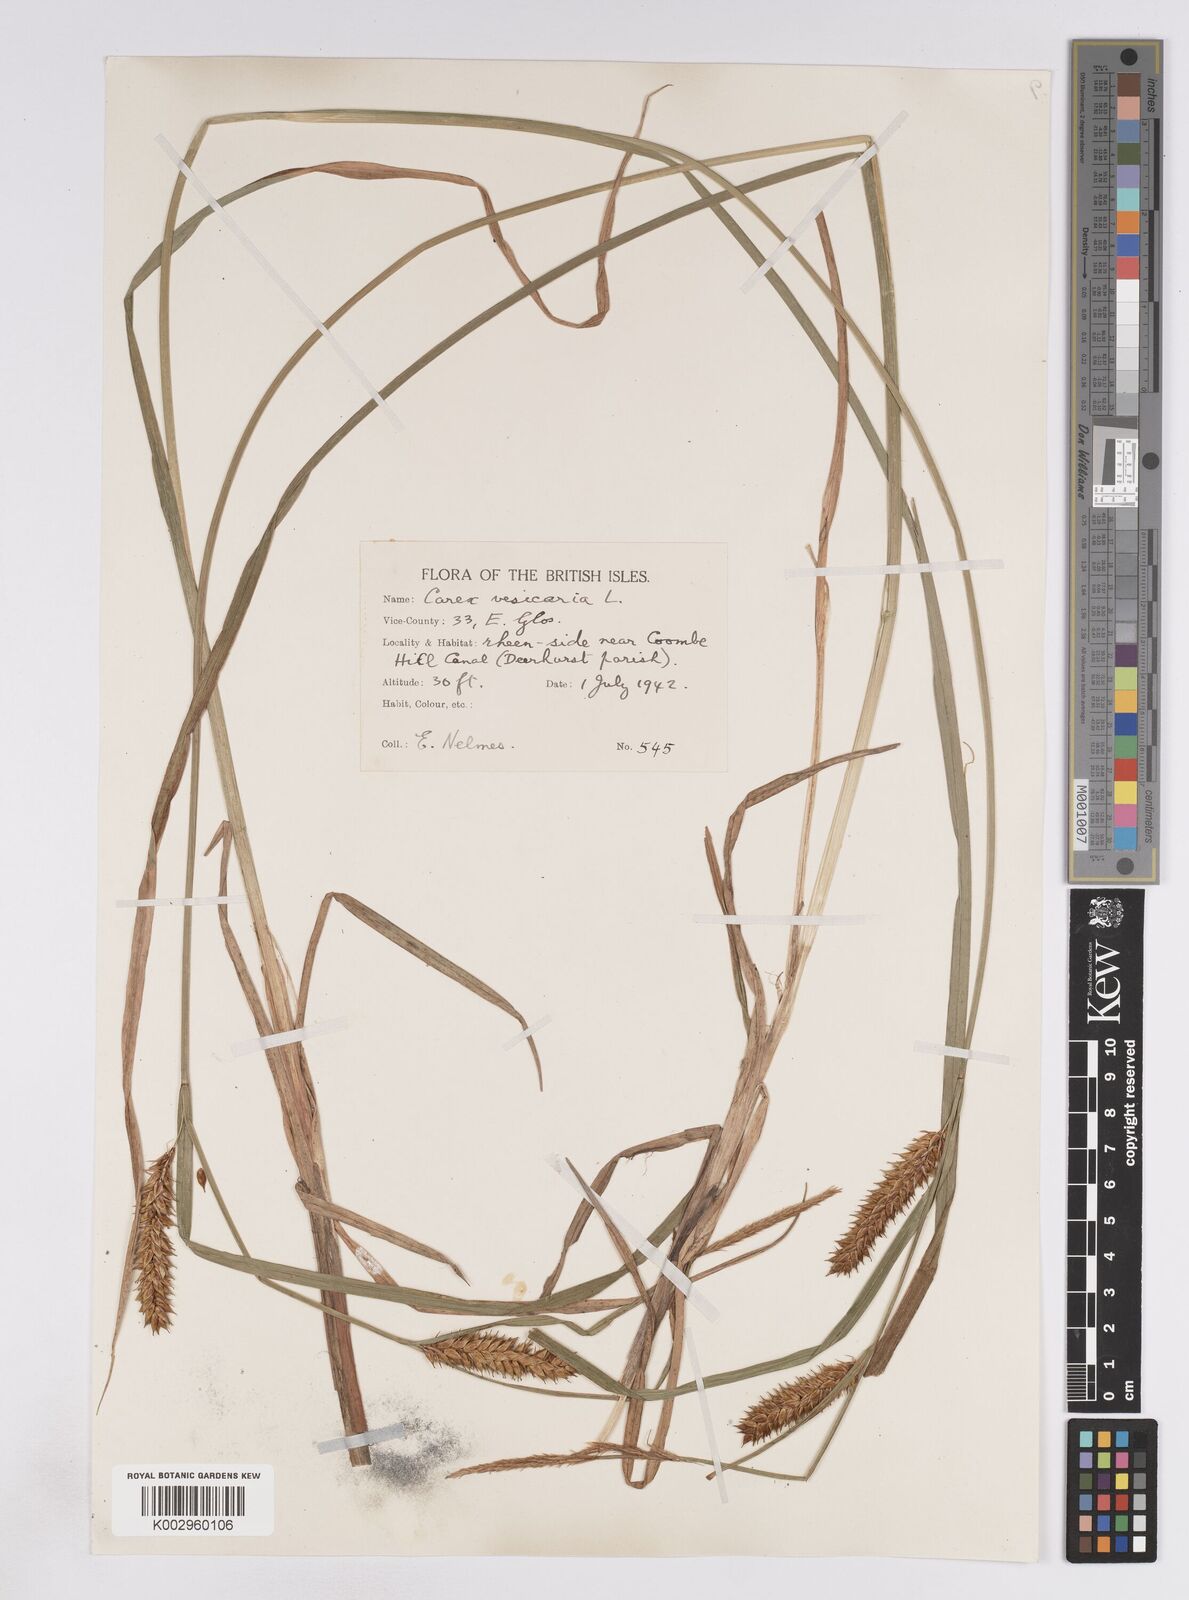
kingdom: Plantae
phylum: Tracheophyta
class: Liliopsida
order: Poales
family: Cyperaceae
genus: Carex
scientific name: Carex vesicaria
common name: Bladder-sedge
